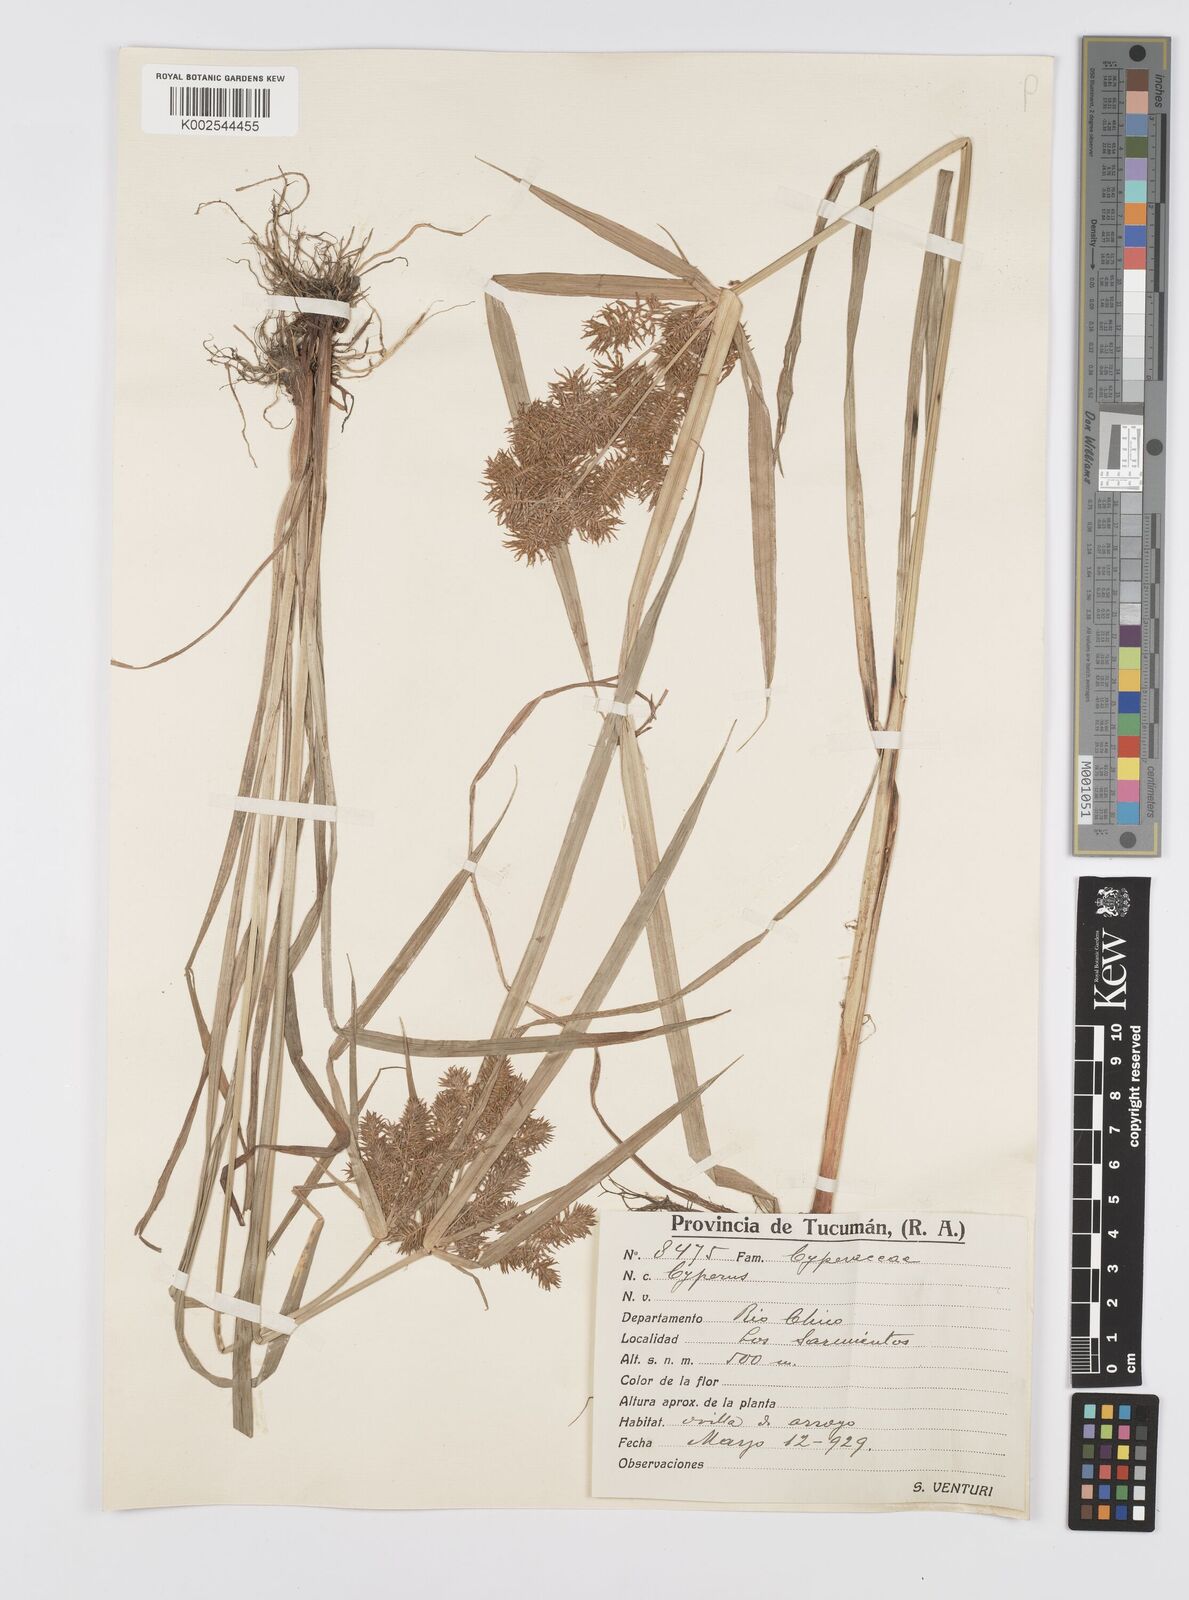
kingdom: Plantae
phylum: Tracheophyta
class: Liliopsida
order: Poales
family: Cyperaceae
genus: Cyperus
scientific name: Cyperus
